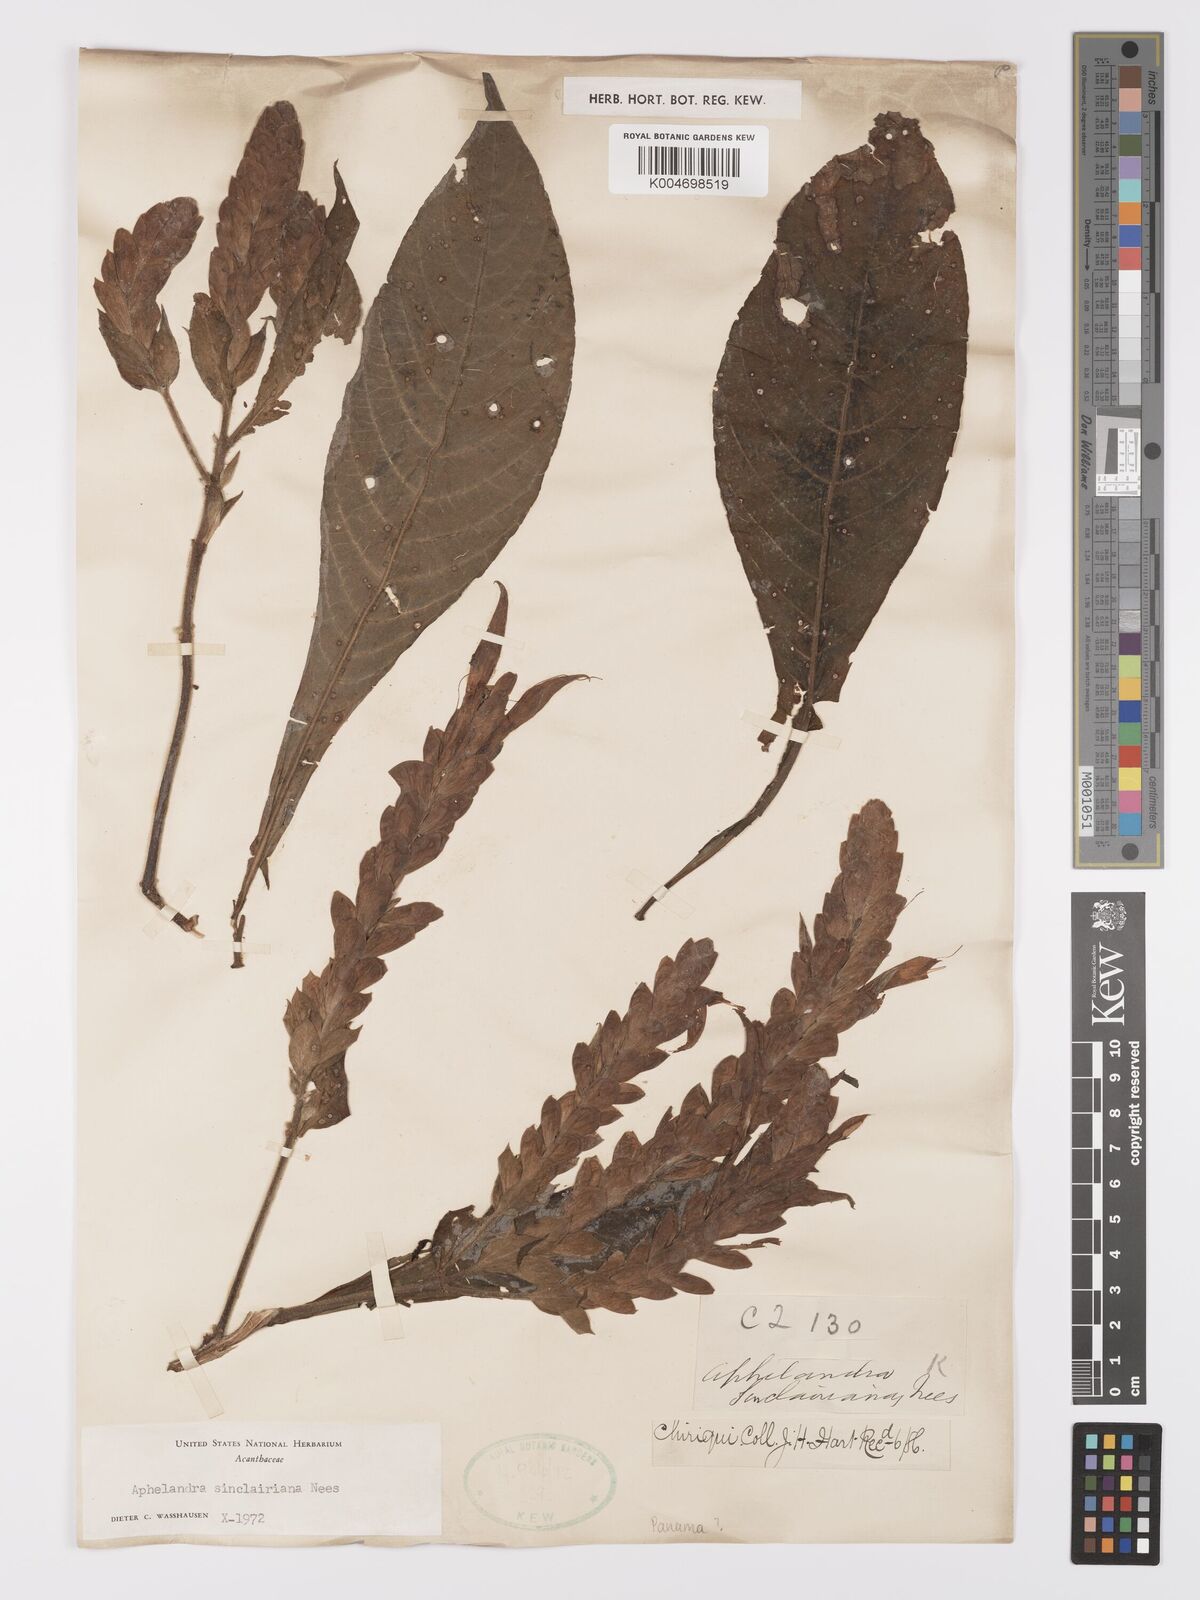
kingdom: Plantae
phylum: Tracheophyta
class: Magnoliopsida
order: Lamiales
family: Acanthaceae
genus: Aphelandra
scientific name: Aphelandra sinclairiana
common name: Coral aphelandra
